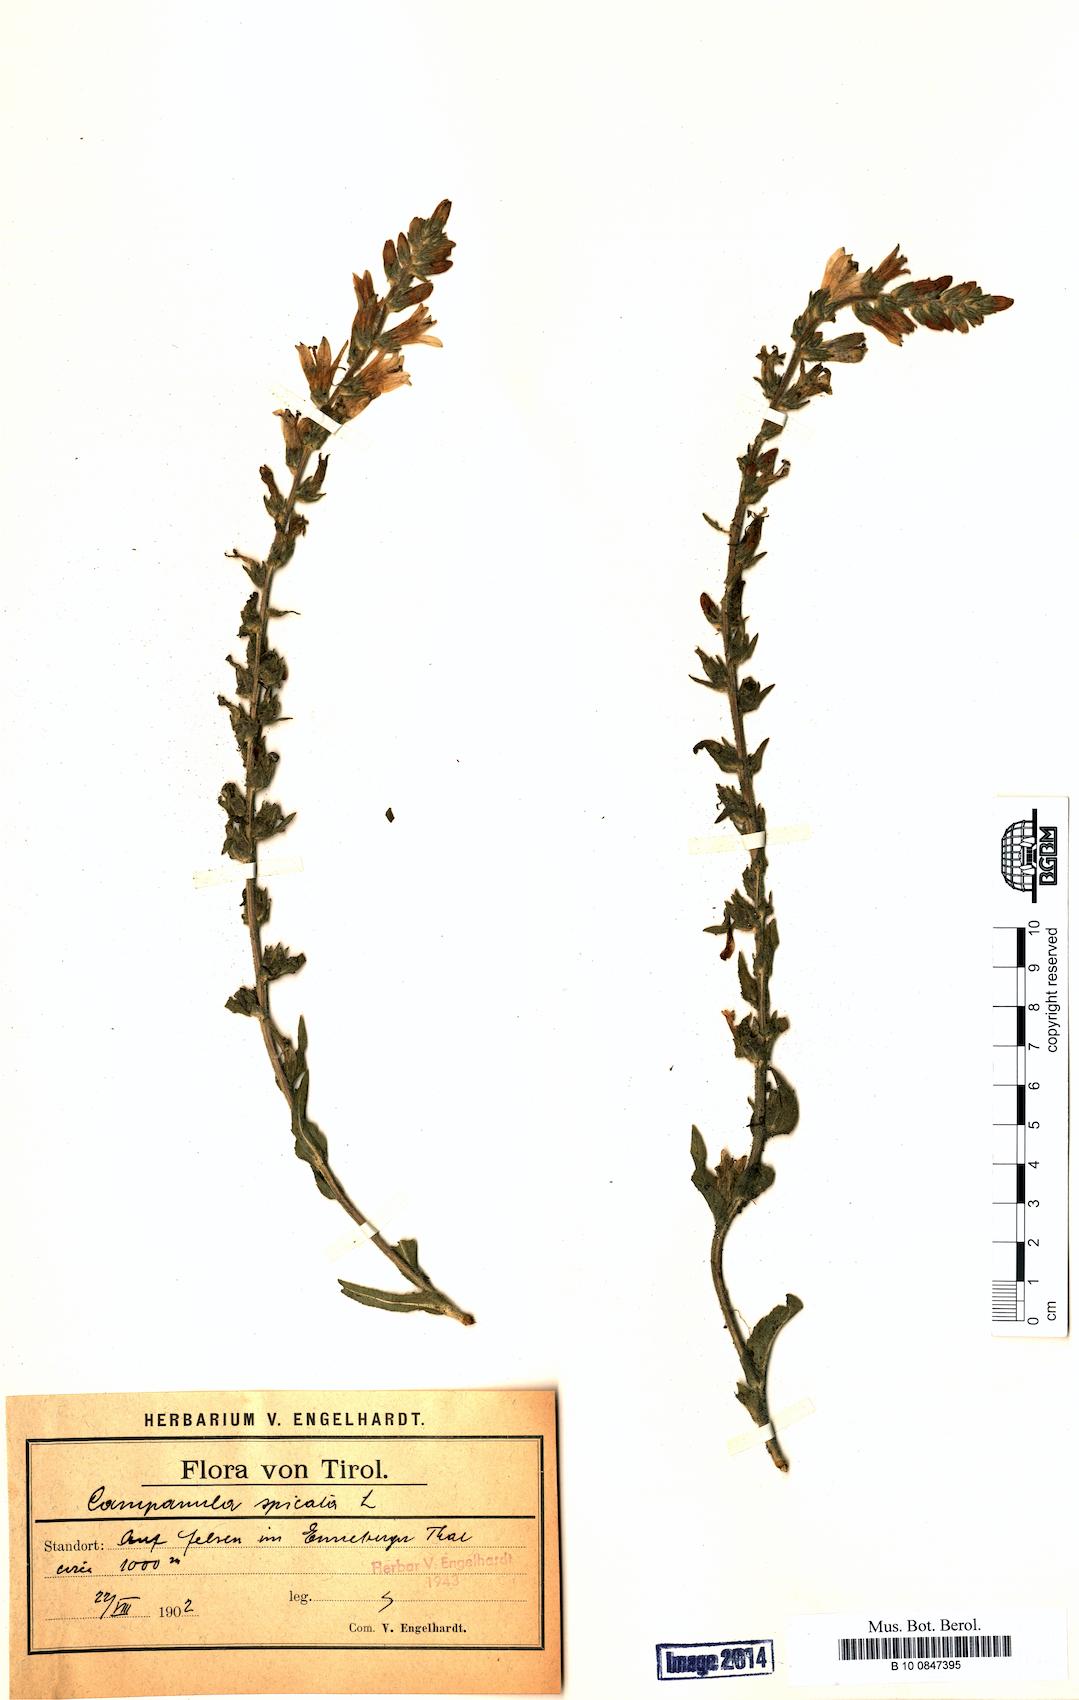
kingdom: Plantae
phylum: Tracheophyta
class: Magnoliopsida
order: Asterales
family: Campanulaceae
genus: Campanula
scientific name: Campanula spicata
